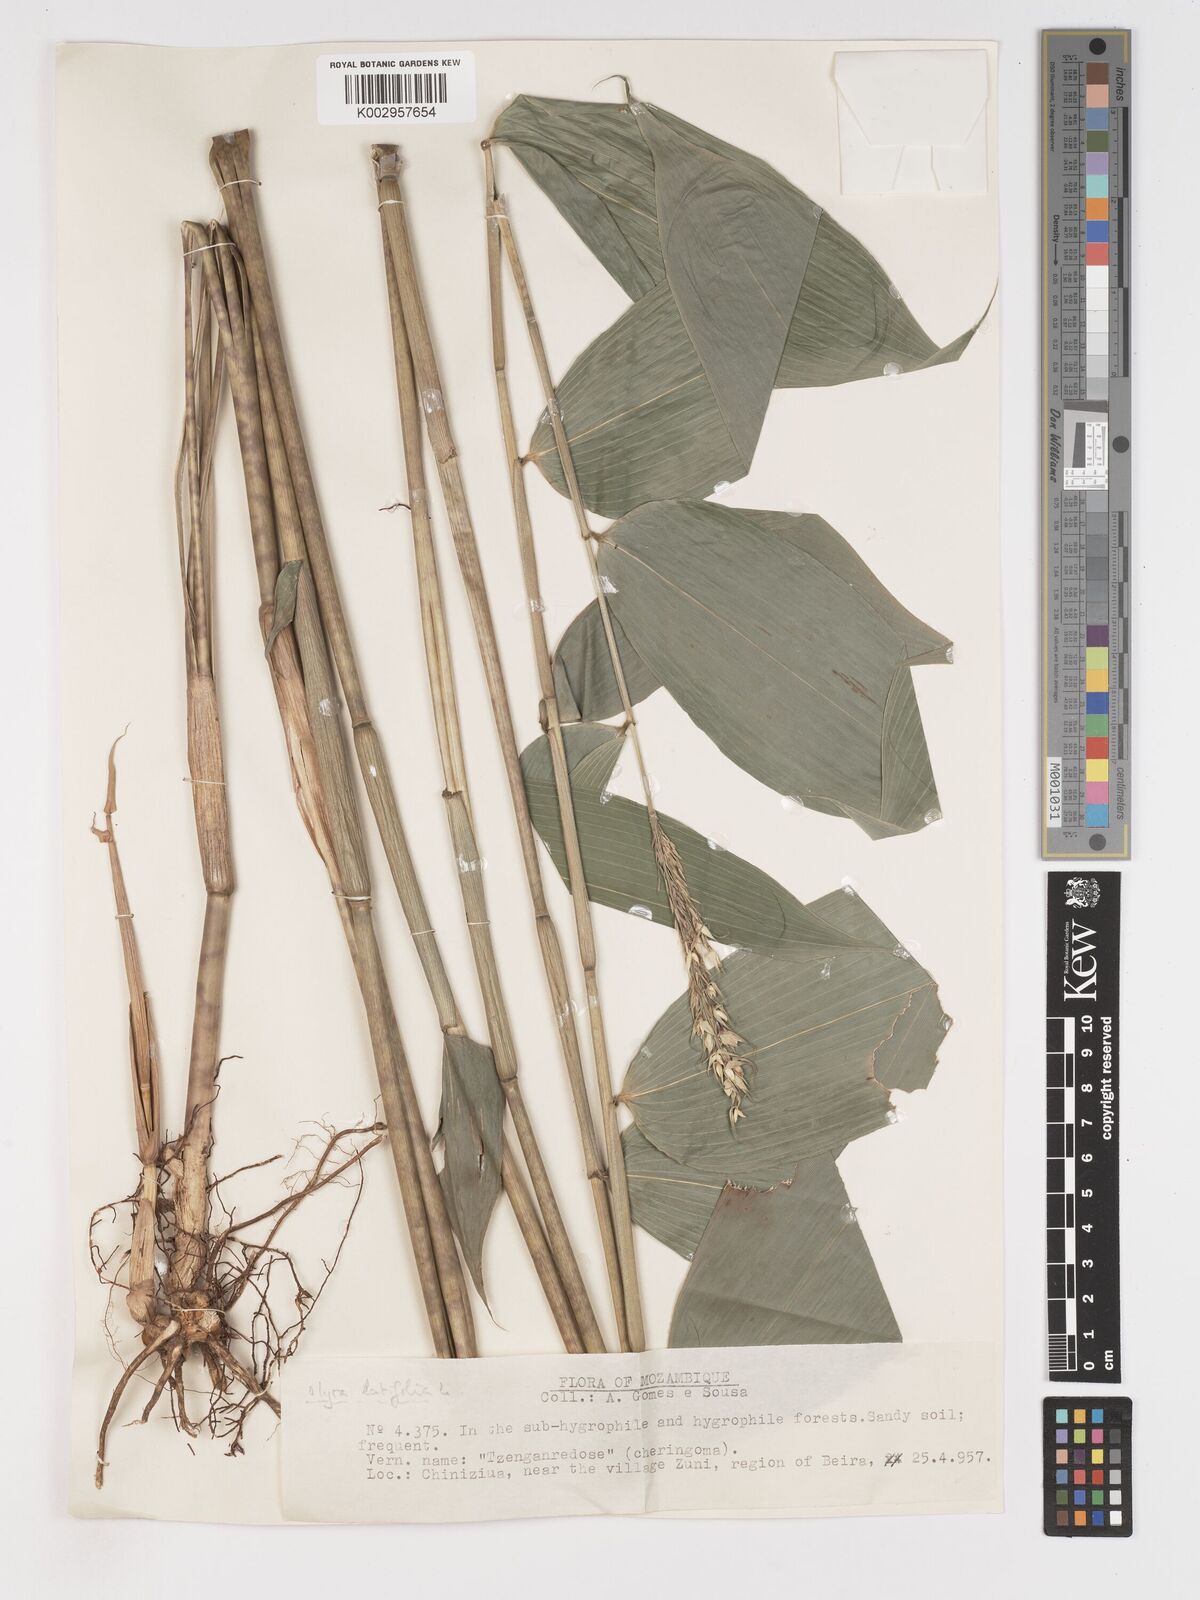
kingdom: Plantae
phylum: Tracheophyta
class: Liliopsida
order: Poales
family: Poaceae
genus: Olyra
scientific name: Olyra latifolia
